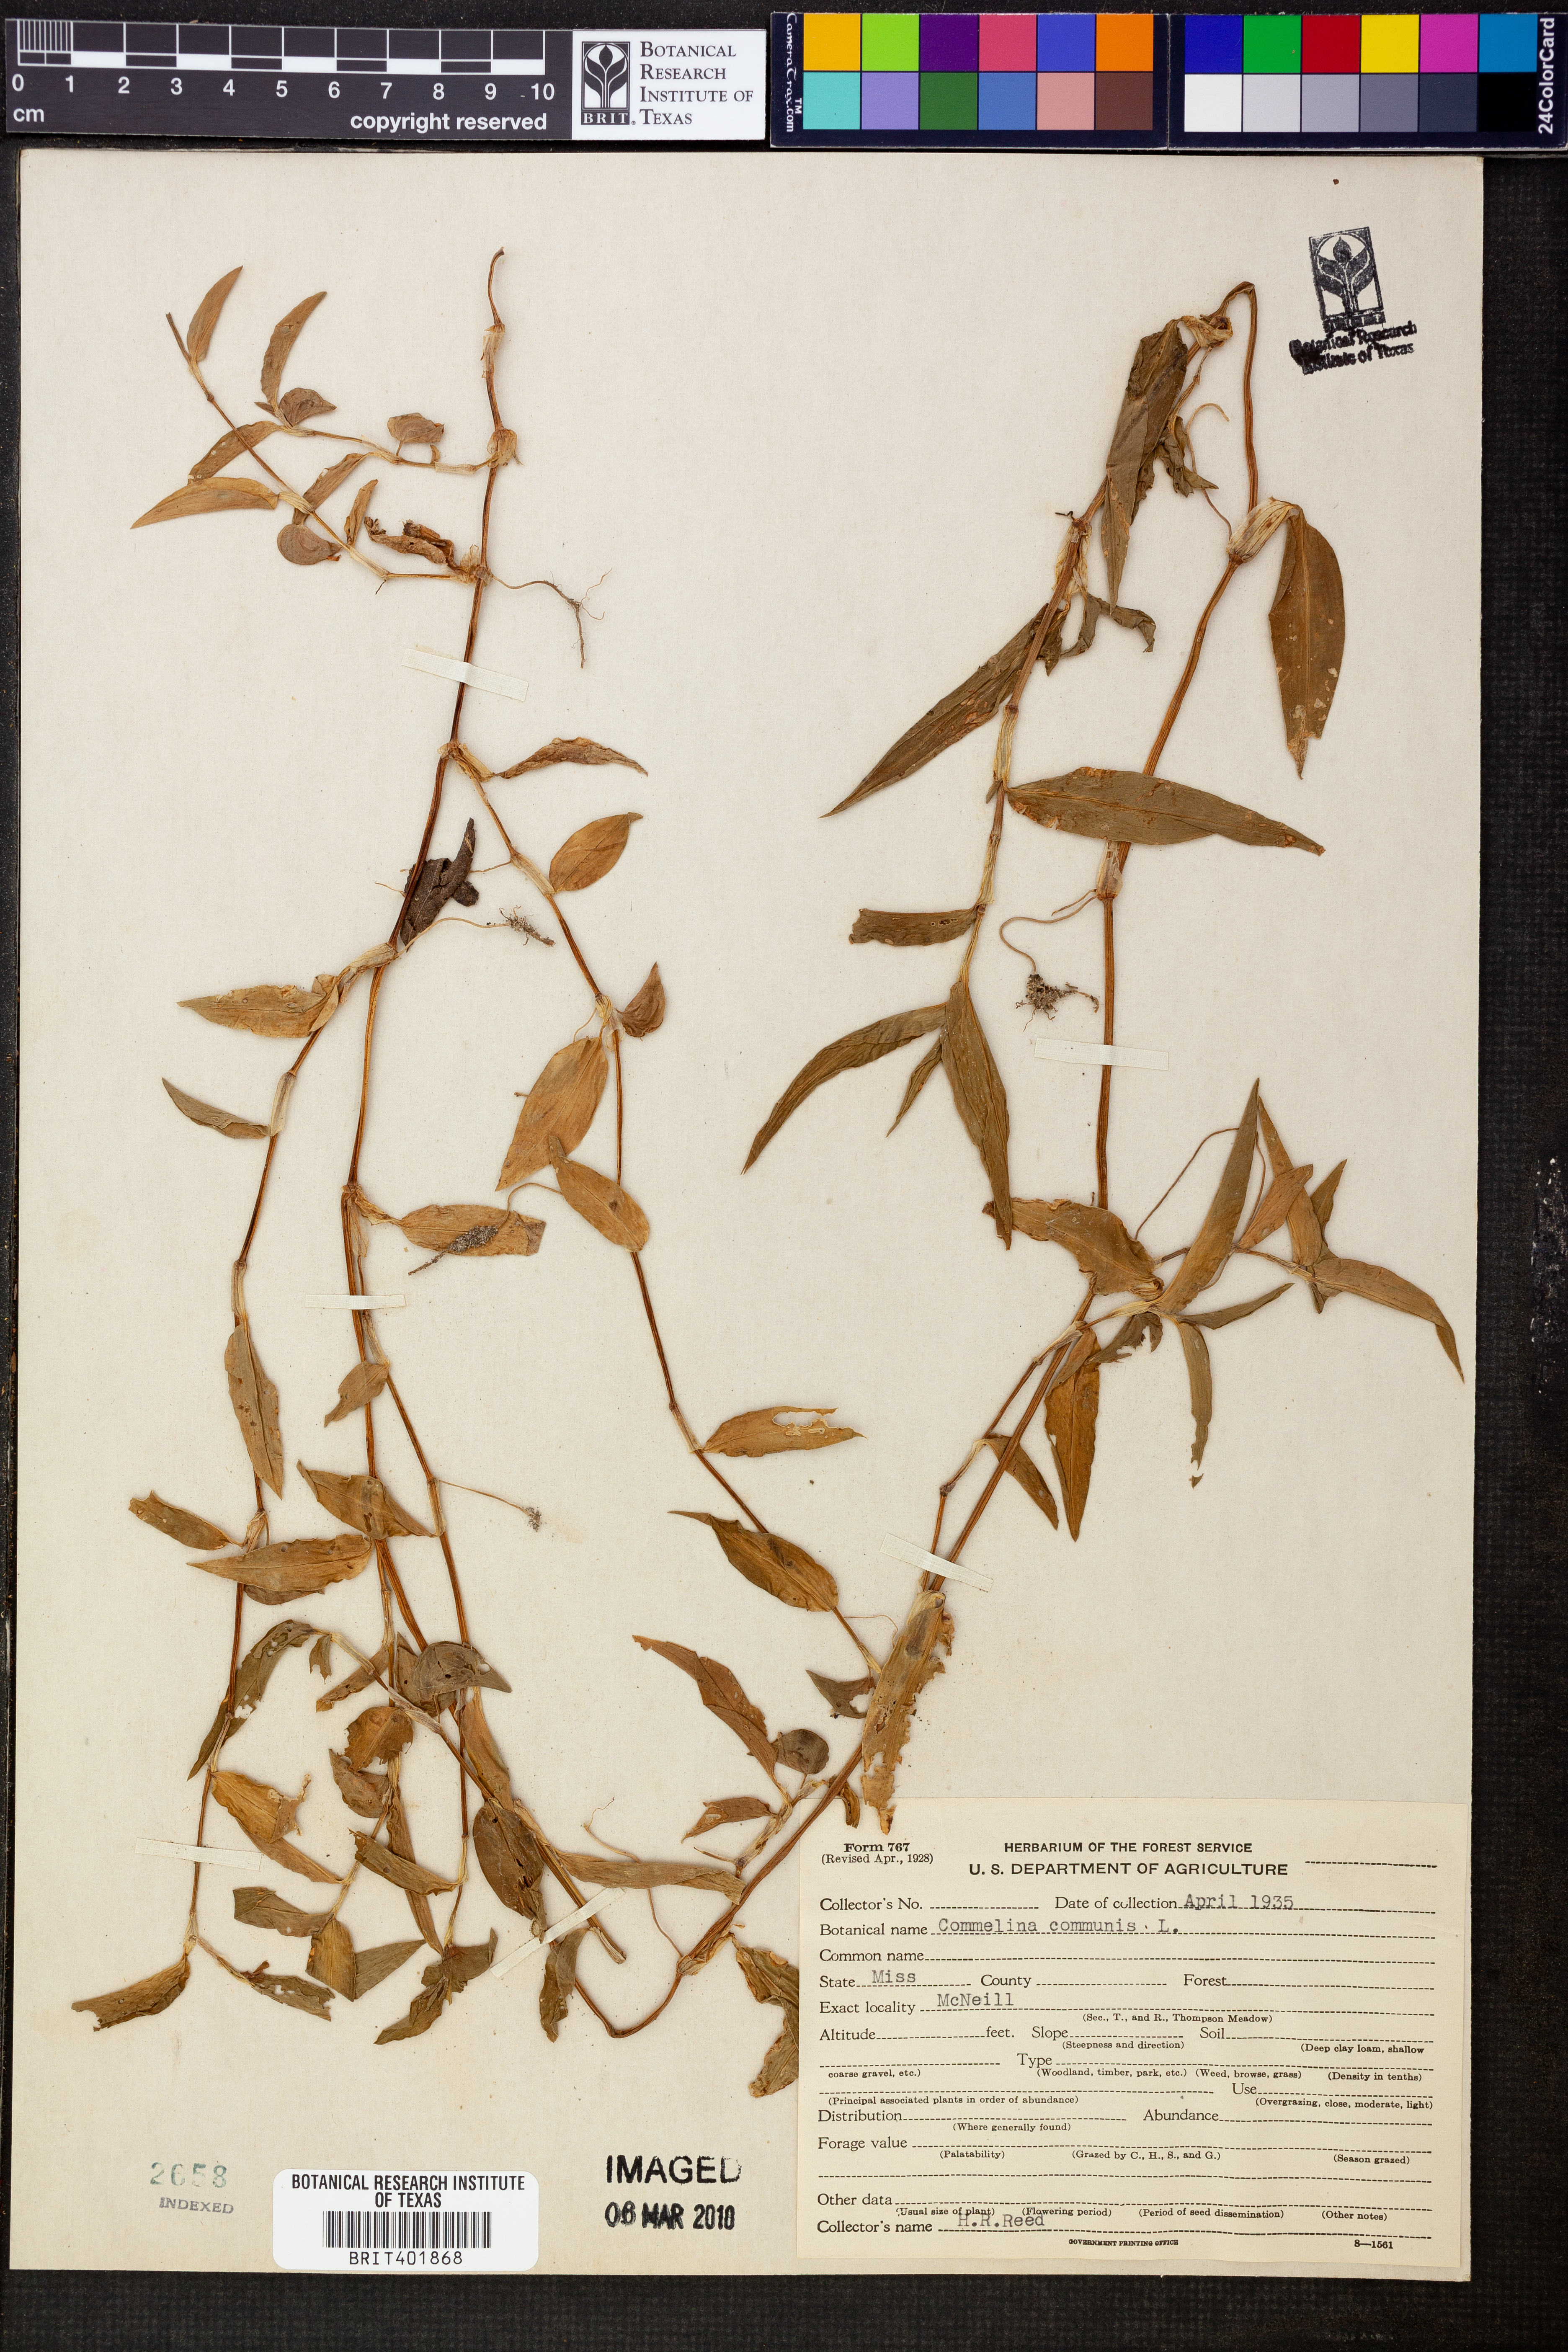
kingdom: Plantae
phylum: Tracheophyta
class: Liliopsida
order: Commelinales
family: Commelinaceae
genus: Commelina
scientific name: Commelina communis
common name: Asiatic dayflower
